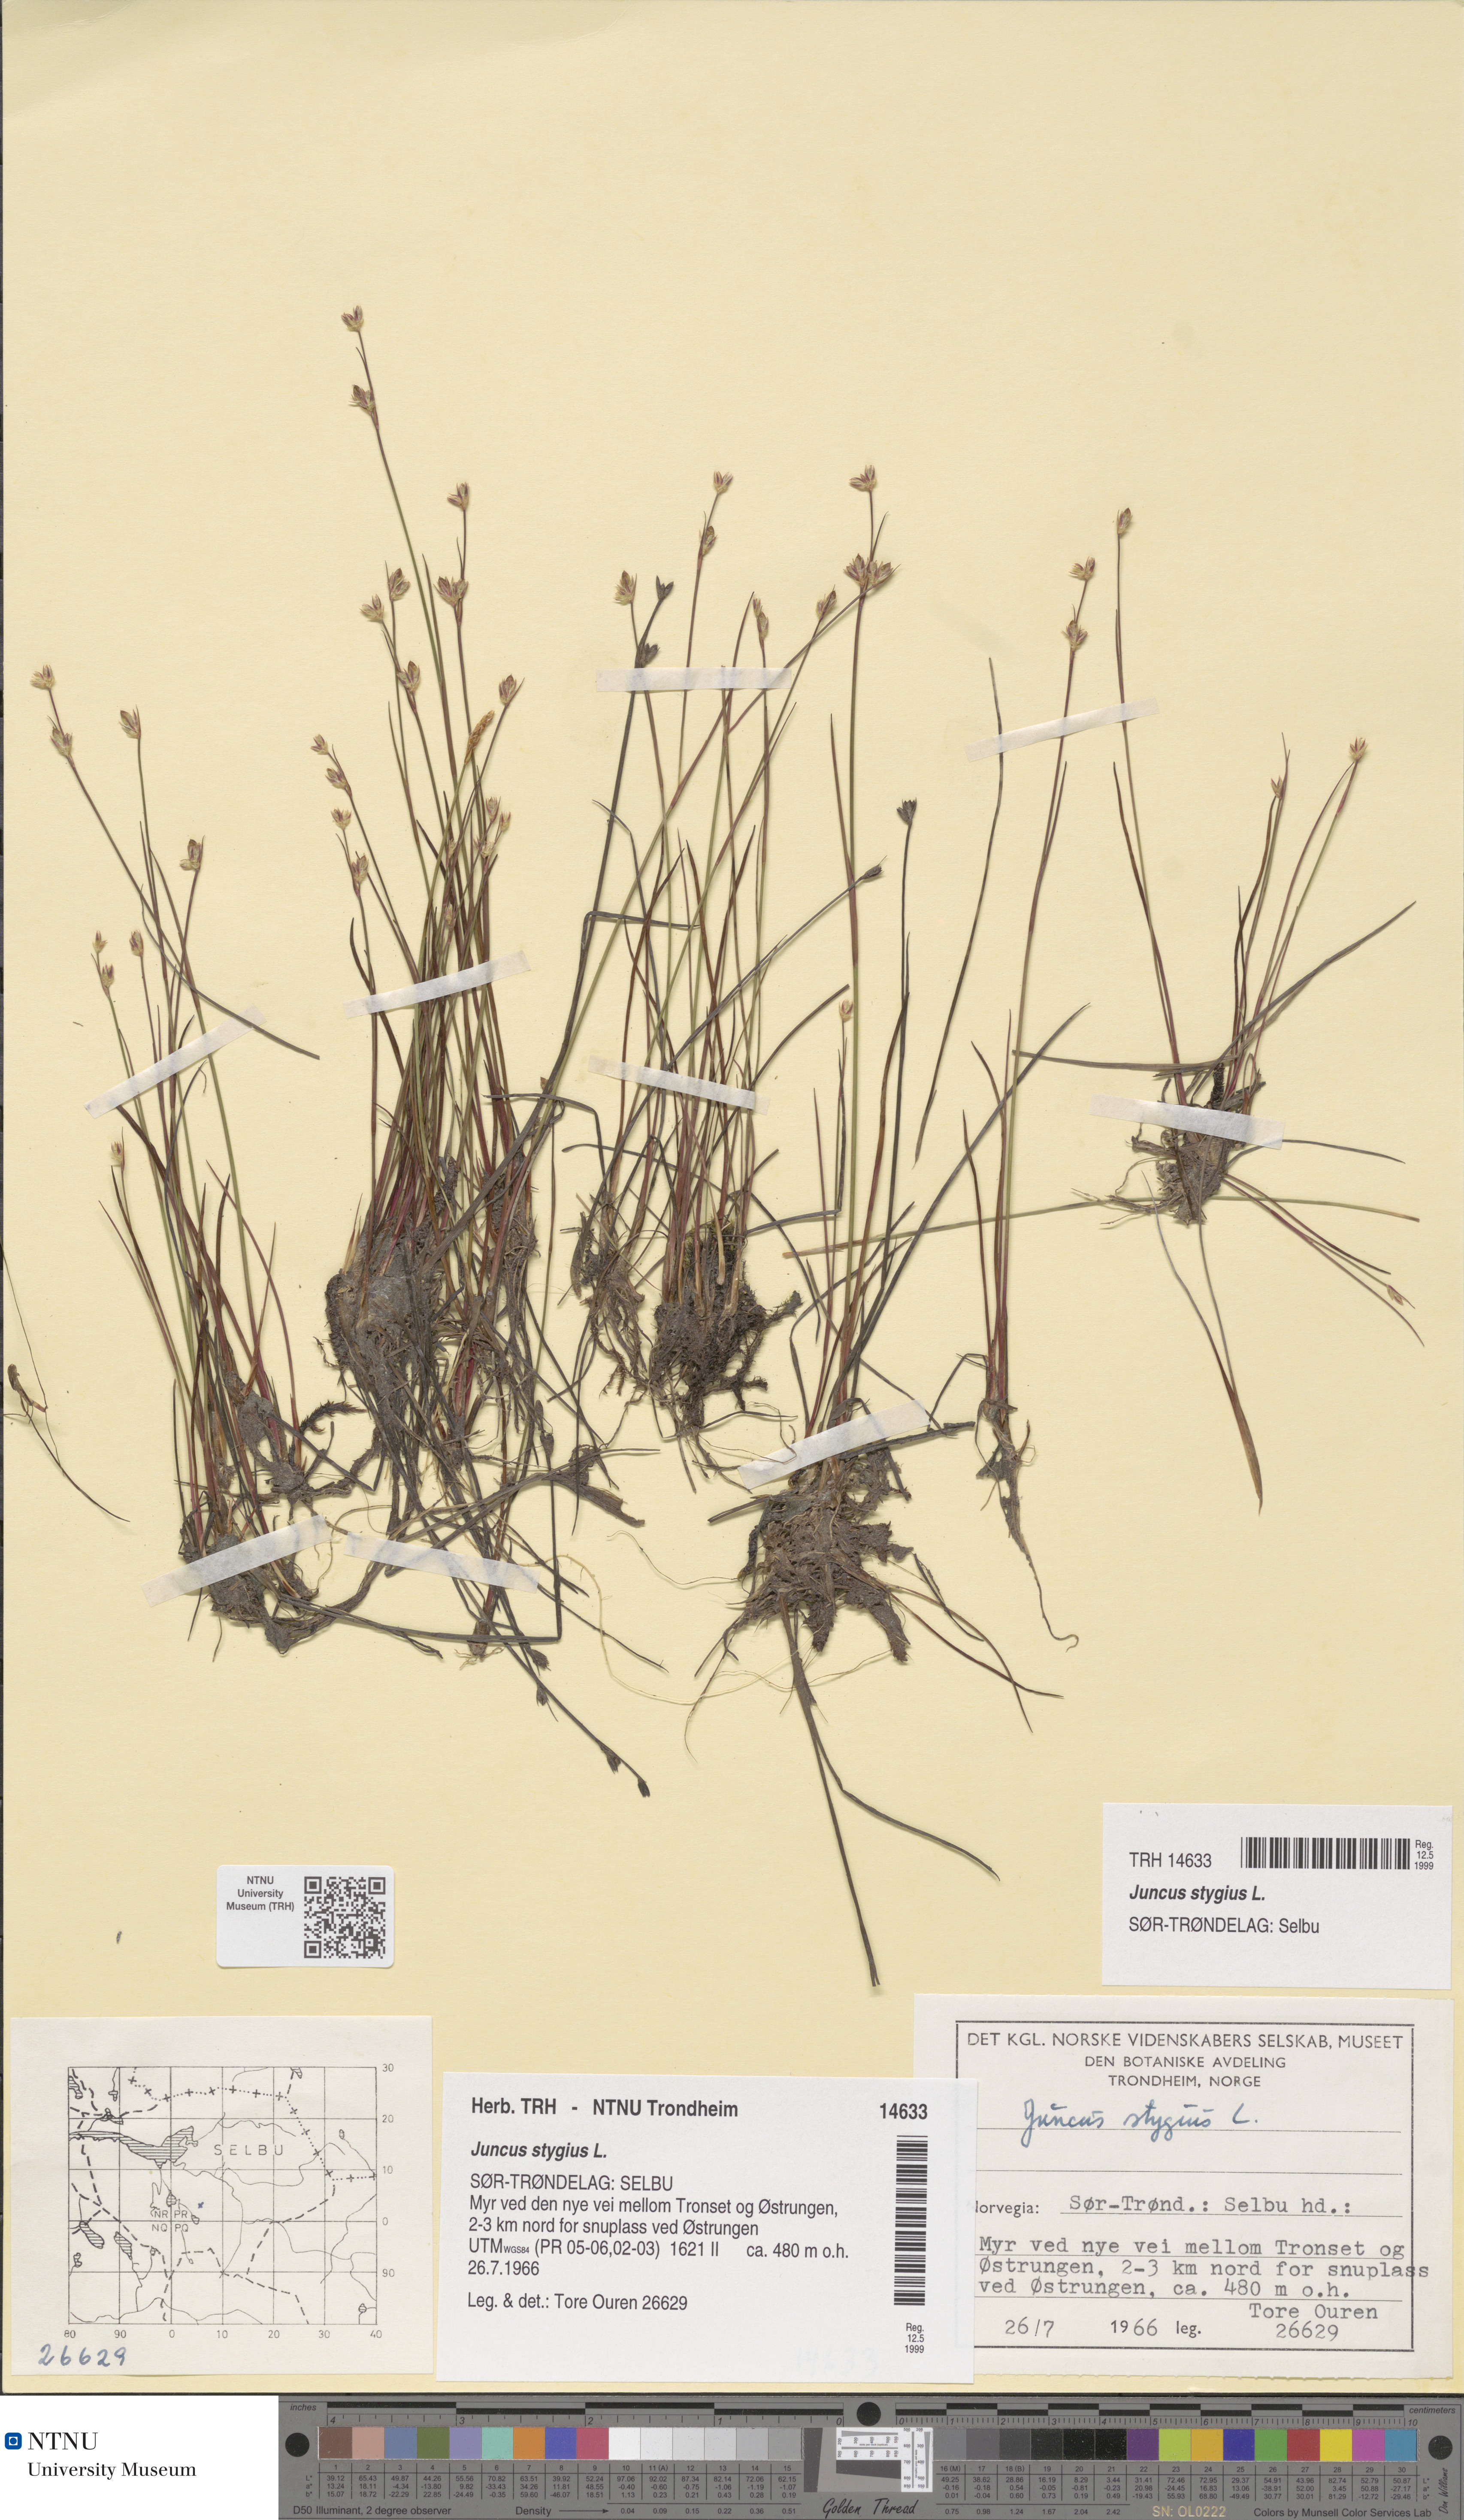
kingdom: Plantae
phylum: Tracheophyta
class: Liliopsida
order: Poales
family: Juncaceae
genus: Juncus
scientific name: Juncus stygius
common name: Bog rush
